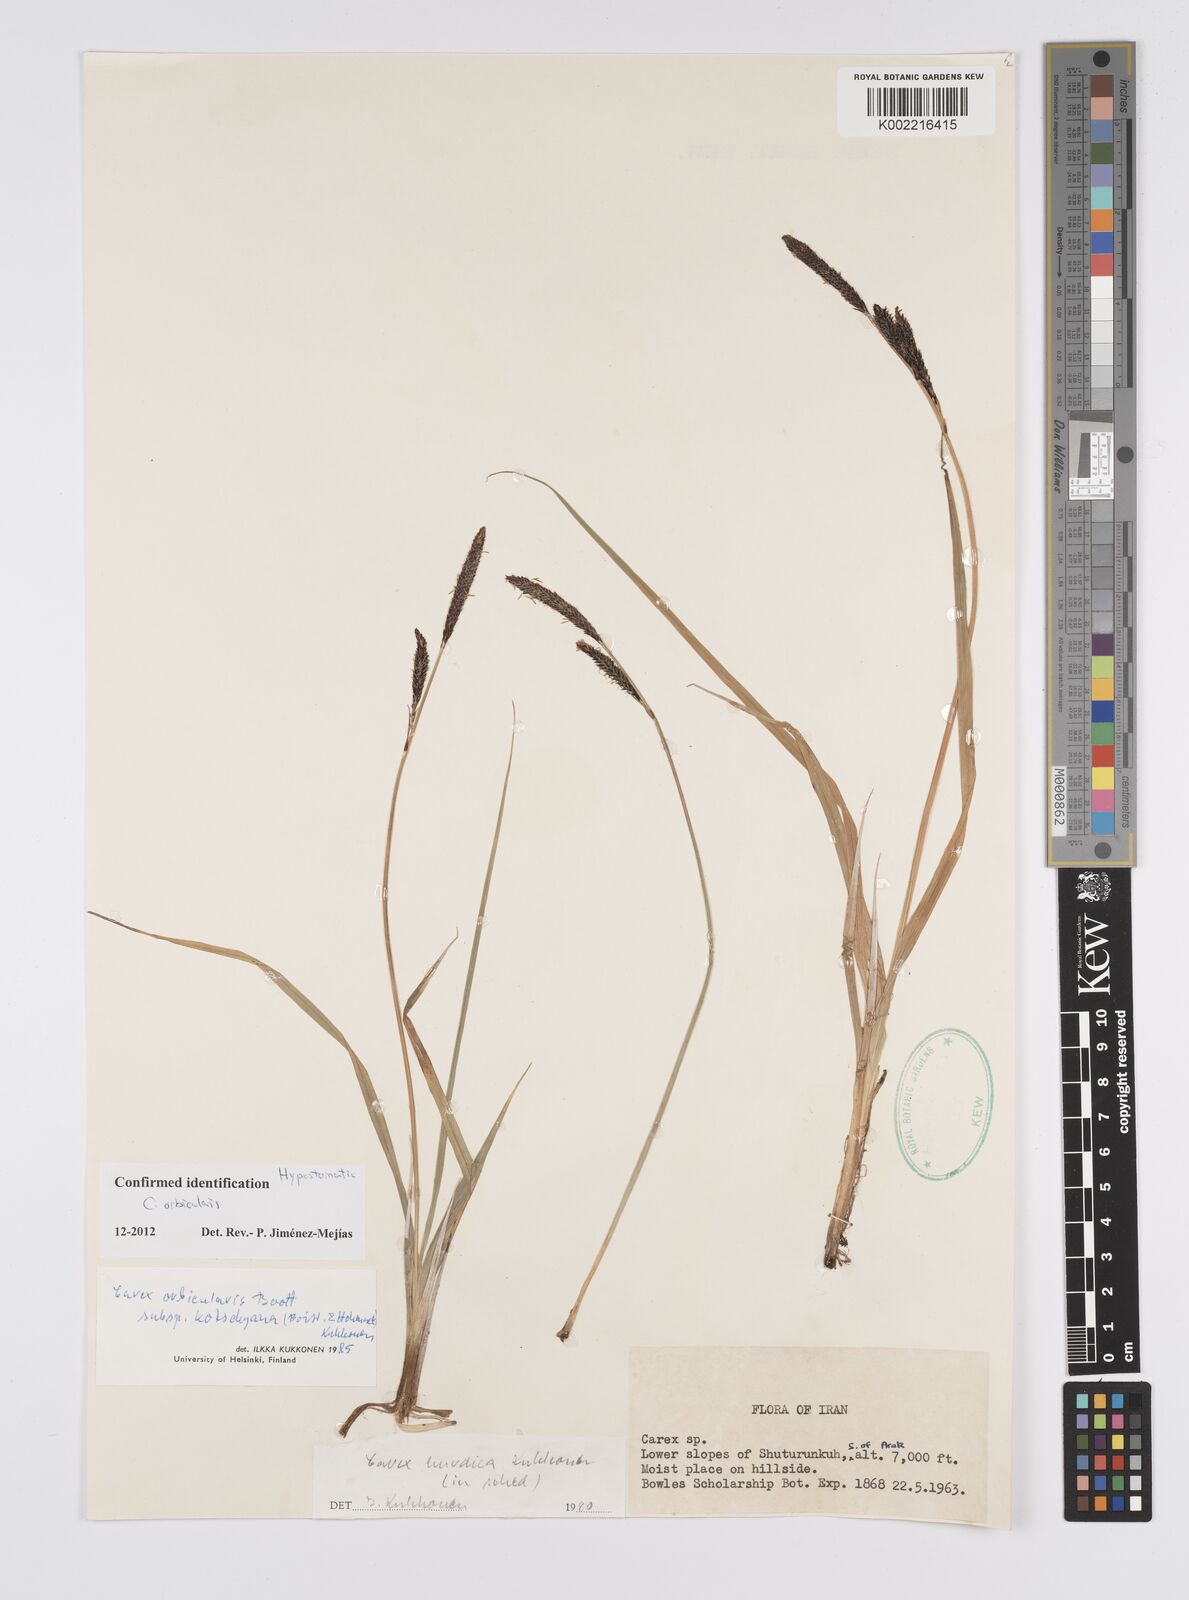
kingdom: Plantae
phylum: Tracheophyta
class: Liliopsida
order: Poales
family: Cyperaceae
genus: Carex
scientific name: Carex orbicularis
